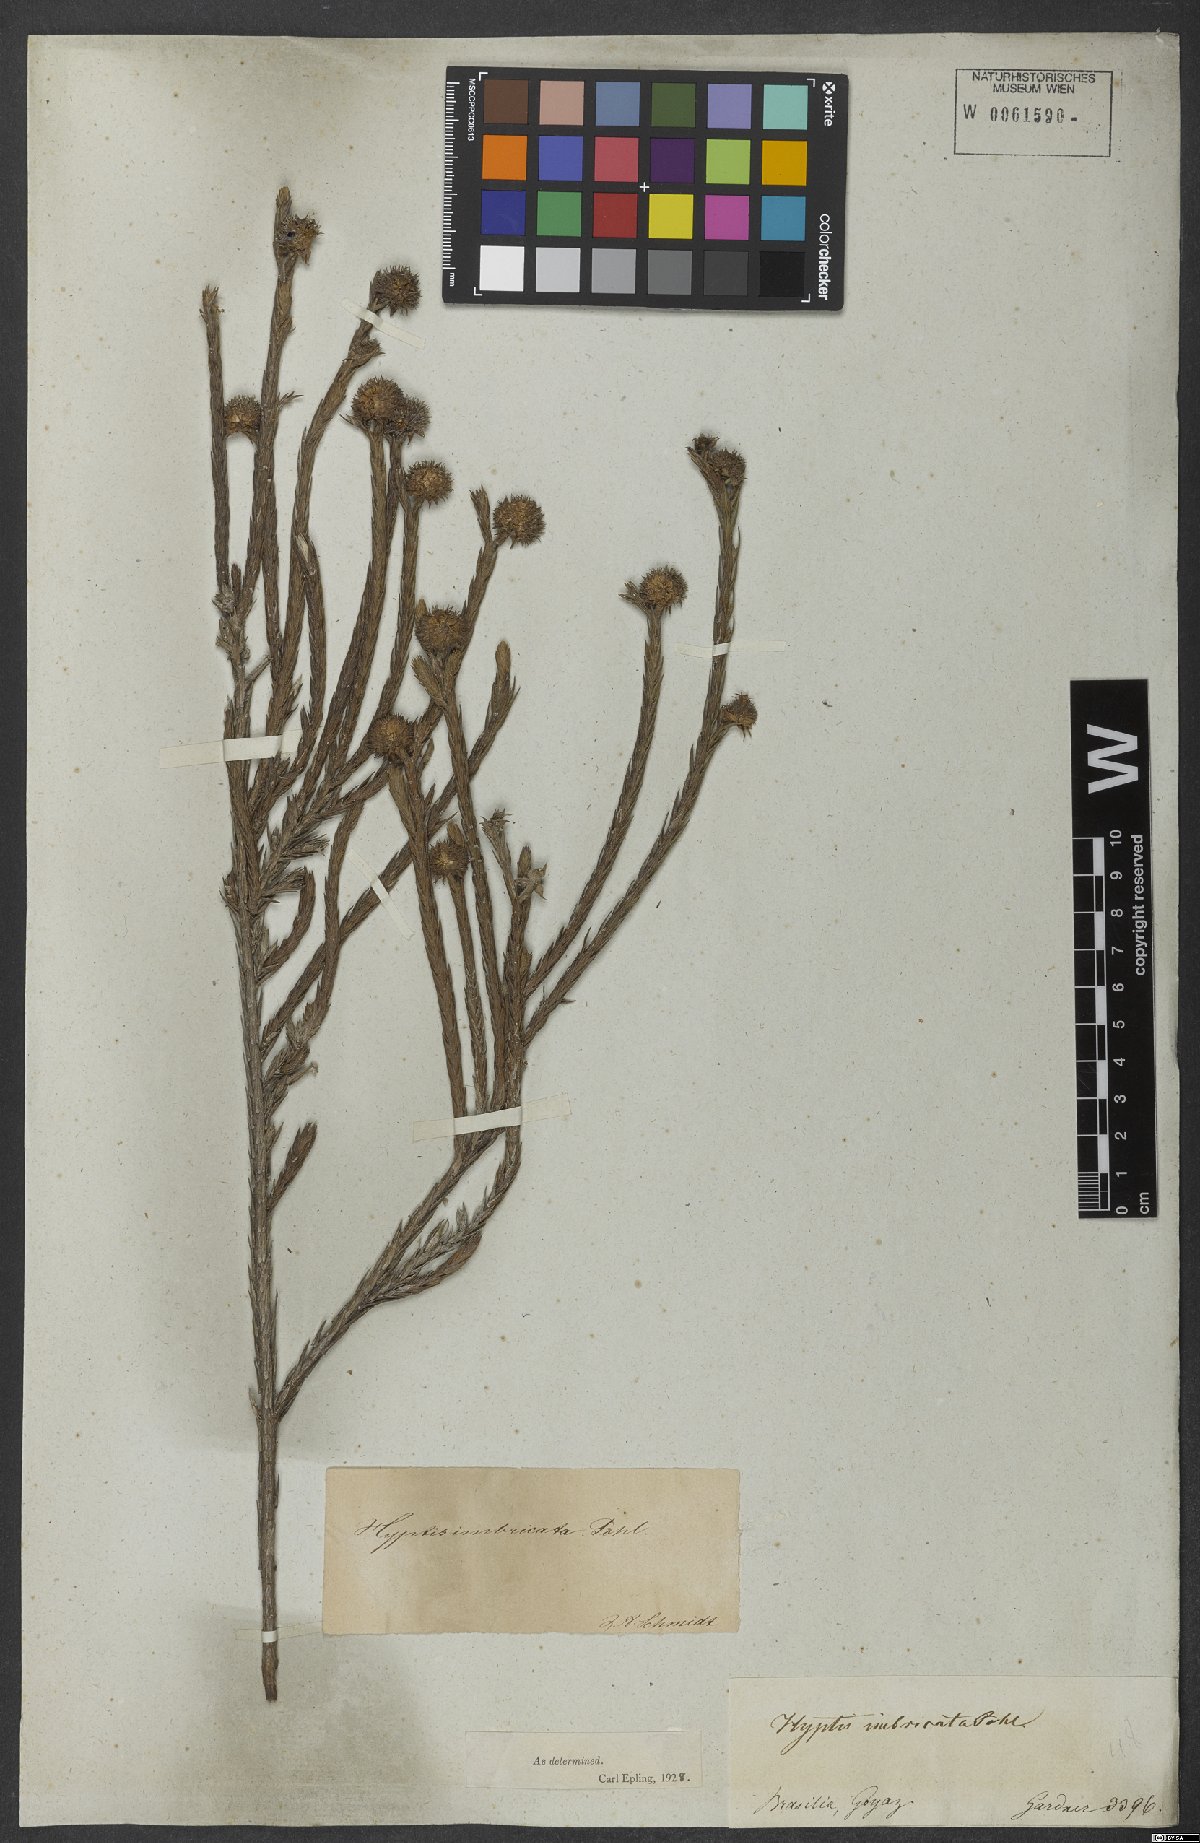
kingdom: Plantae
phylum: Tracheophyta
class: Magnoliopsida
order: Lamiales
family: Lamiaceae
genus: Hyptis
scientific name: Hyptis imbricata
